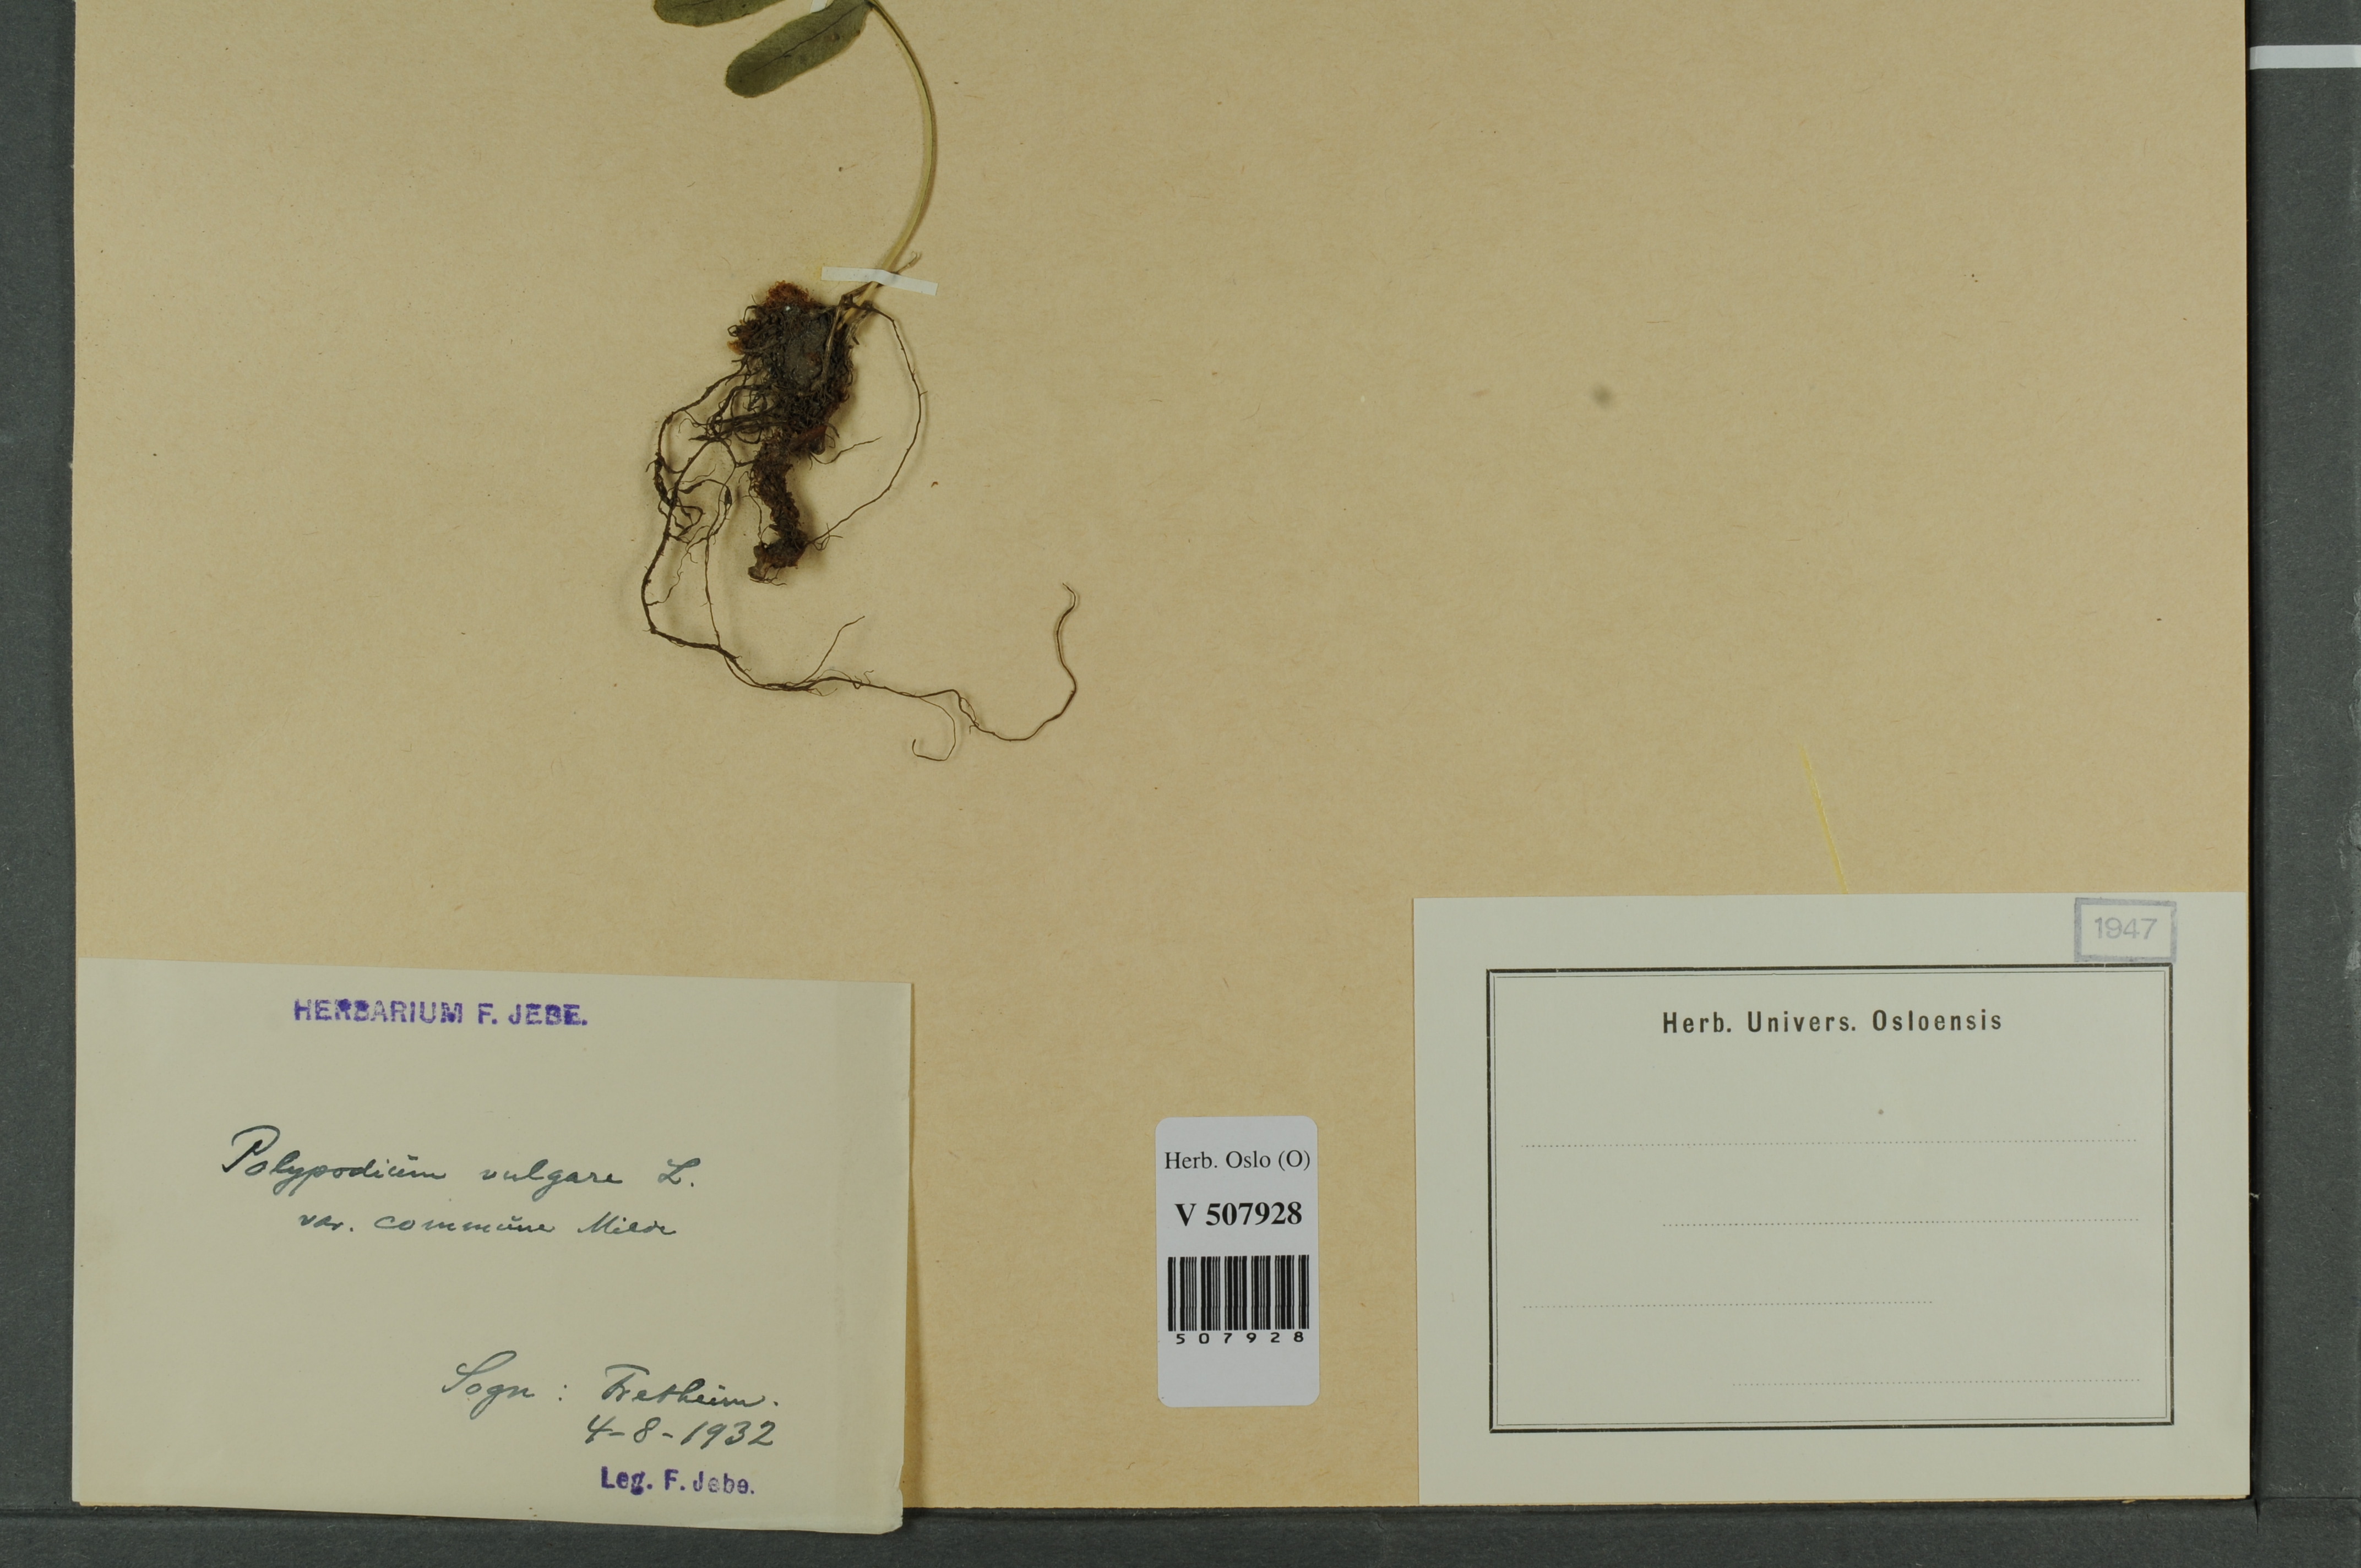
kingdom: Plantae
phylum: Tracheophyta
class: Polypodiopsida
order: Polypodiales
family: Polypodiaceae
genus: Polypodium
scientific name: Polypodium vulgare
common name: Common polypody
